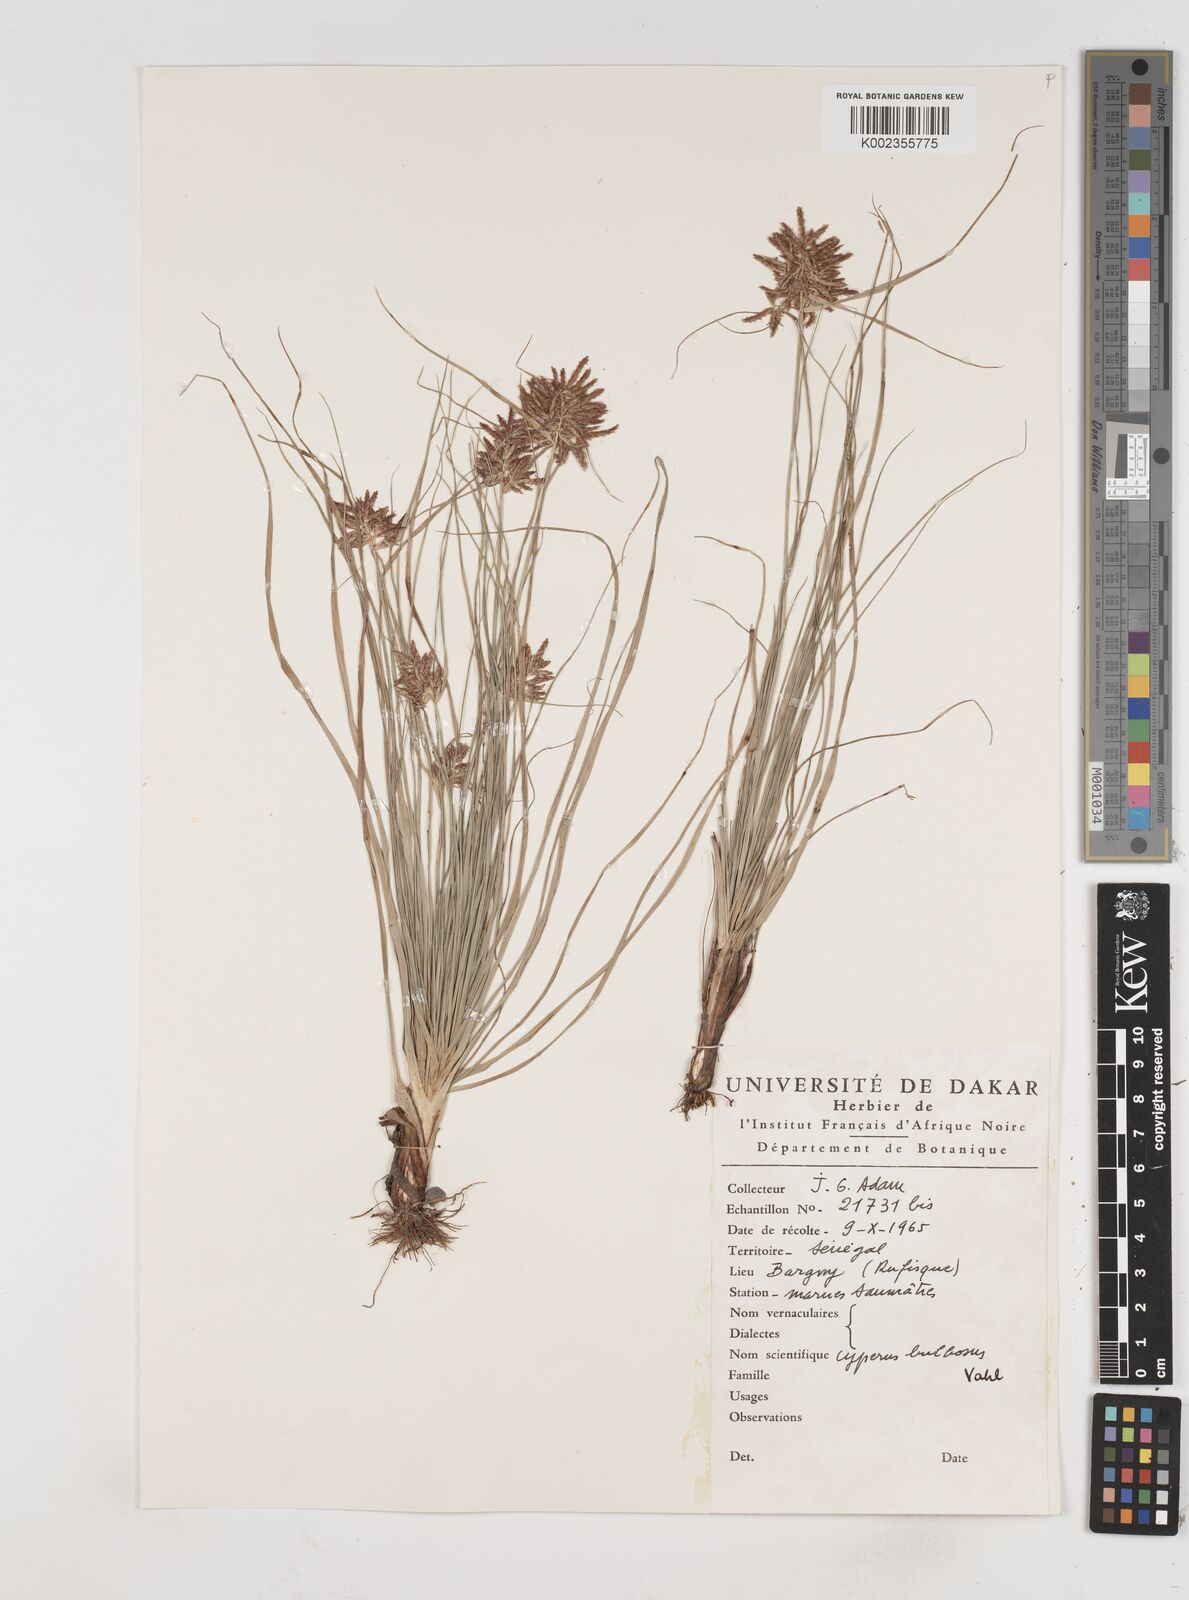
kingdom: Plantae
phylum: Tracheophyta
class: Liliopsida
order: Poales
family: Cyperaceae
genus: Cyperus
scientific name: Cyperus bulbosus
